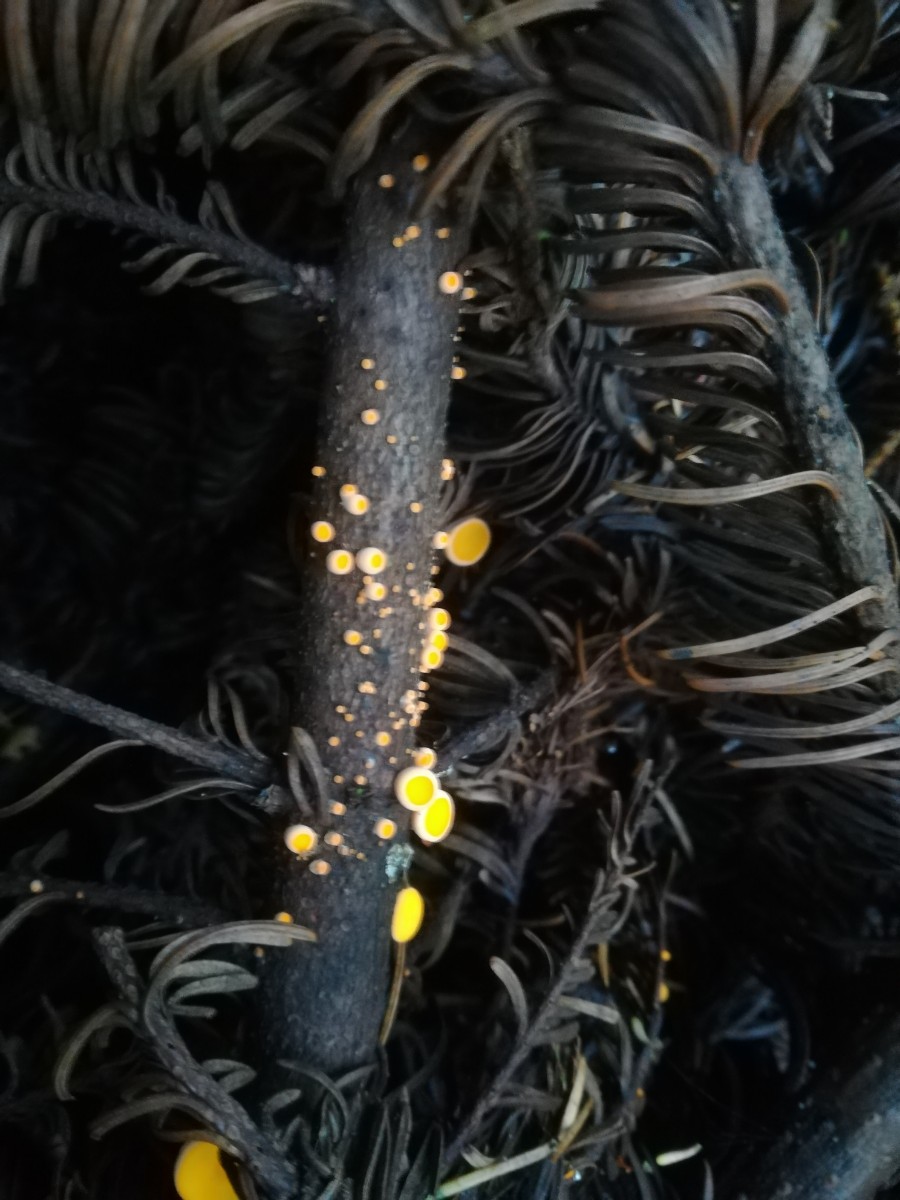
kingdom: Fungi
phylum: Ascomycota
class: Pezizomycetes
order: Pezizales
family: Sarcoscyphaceae
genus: Pithya
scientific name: Pithya vulgaris
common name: stor dukatbæger
